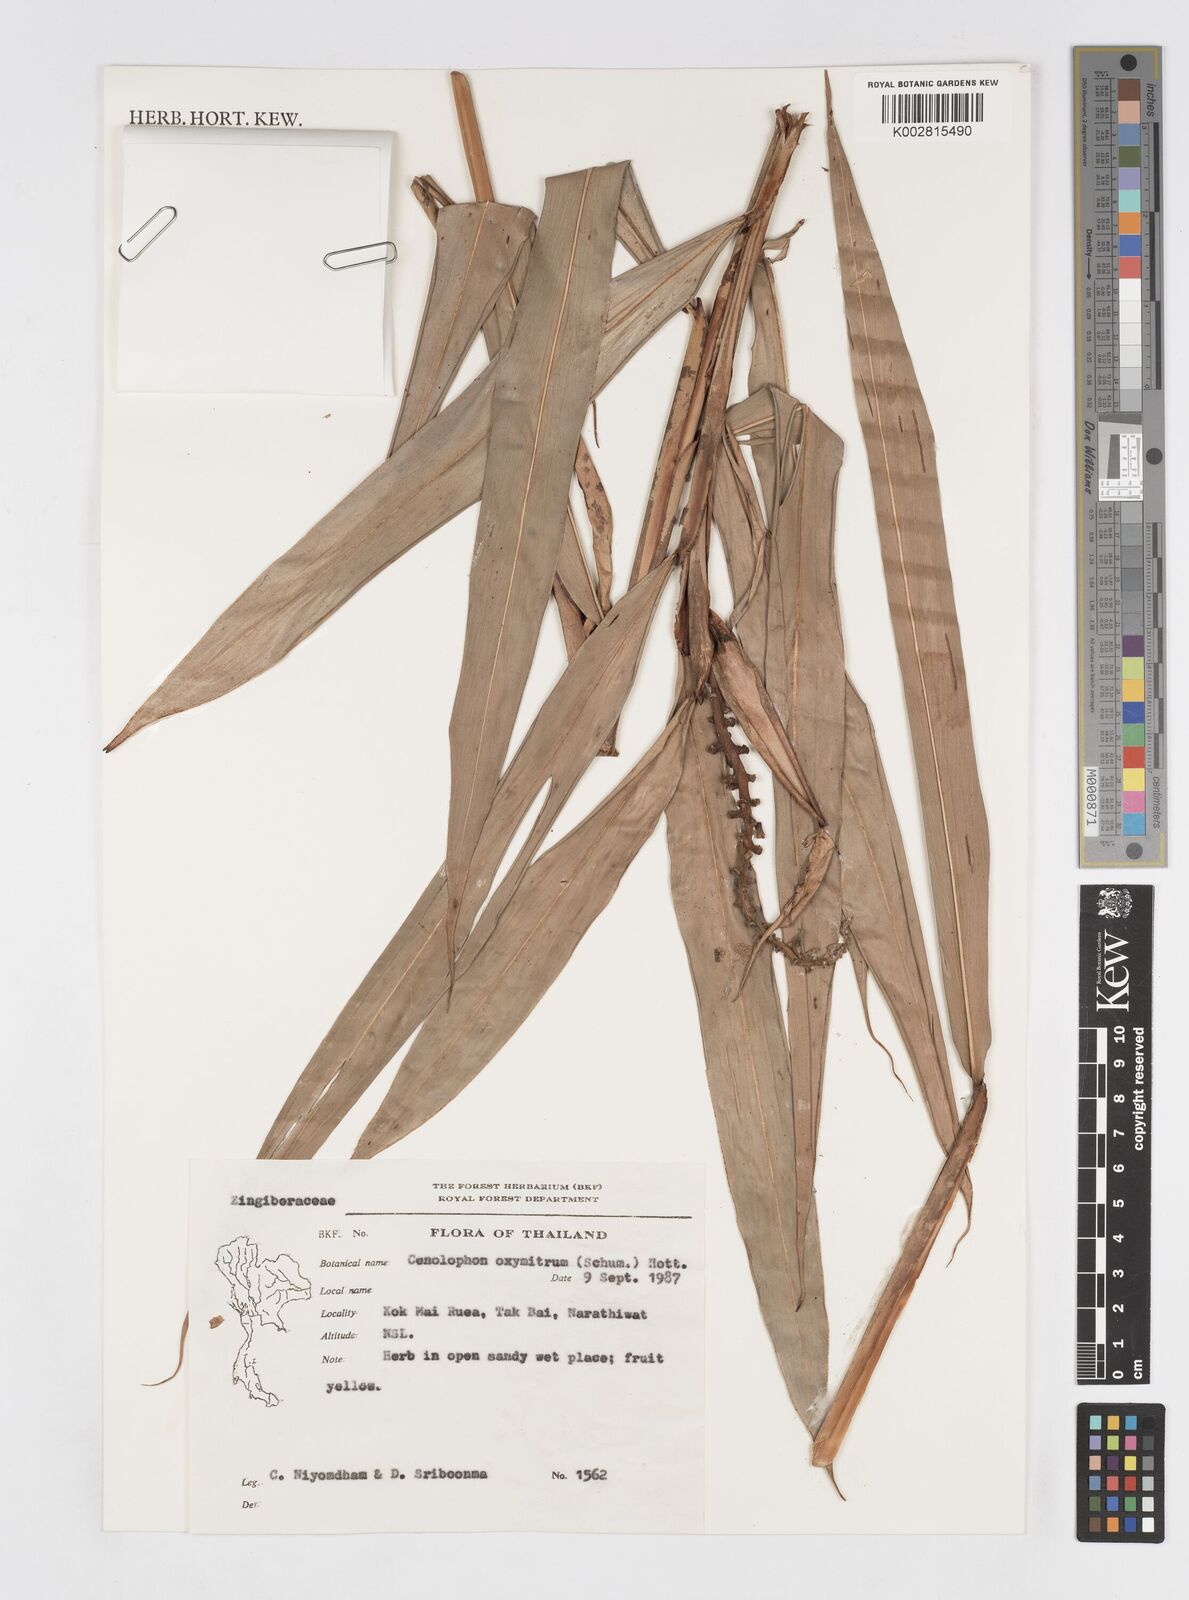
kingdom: Plantae
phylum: Tracheophyta
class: Liliopsida
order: Zingiberales
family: Zingiberaceae
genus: Alpinia
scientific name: Alpinia oxymitra
